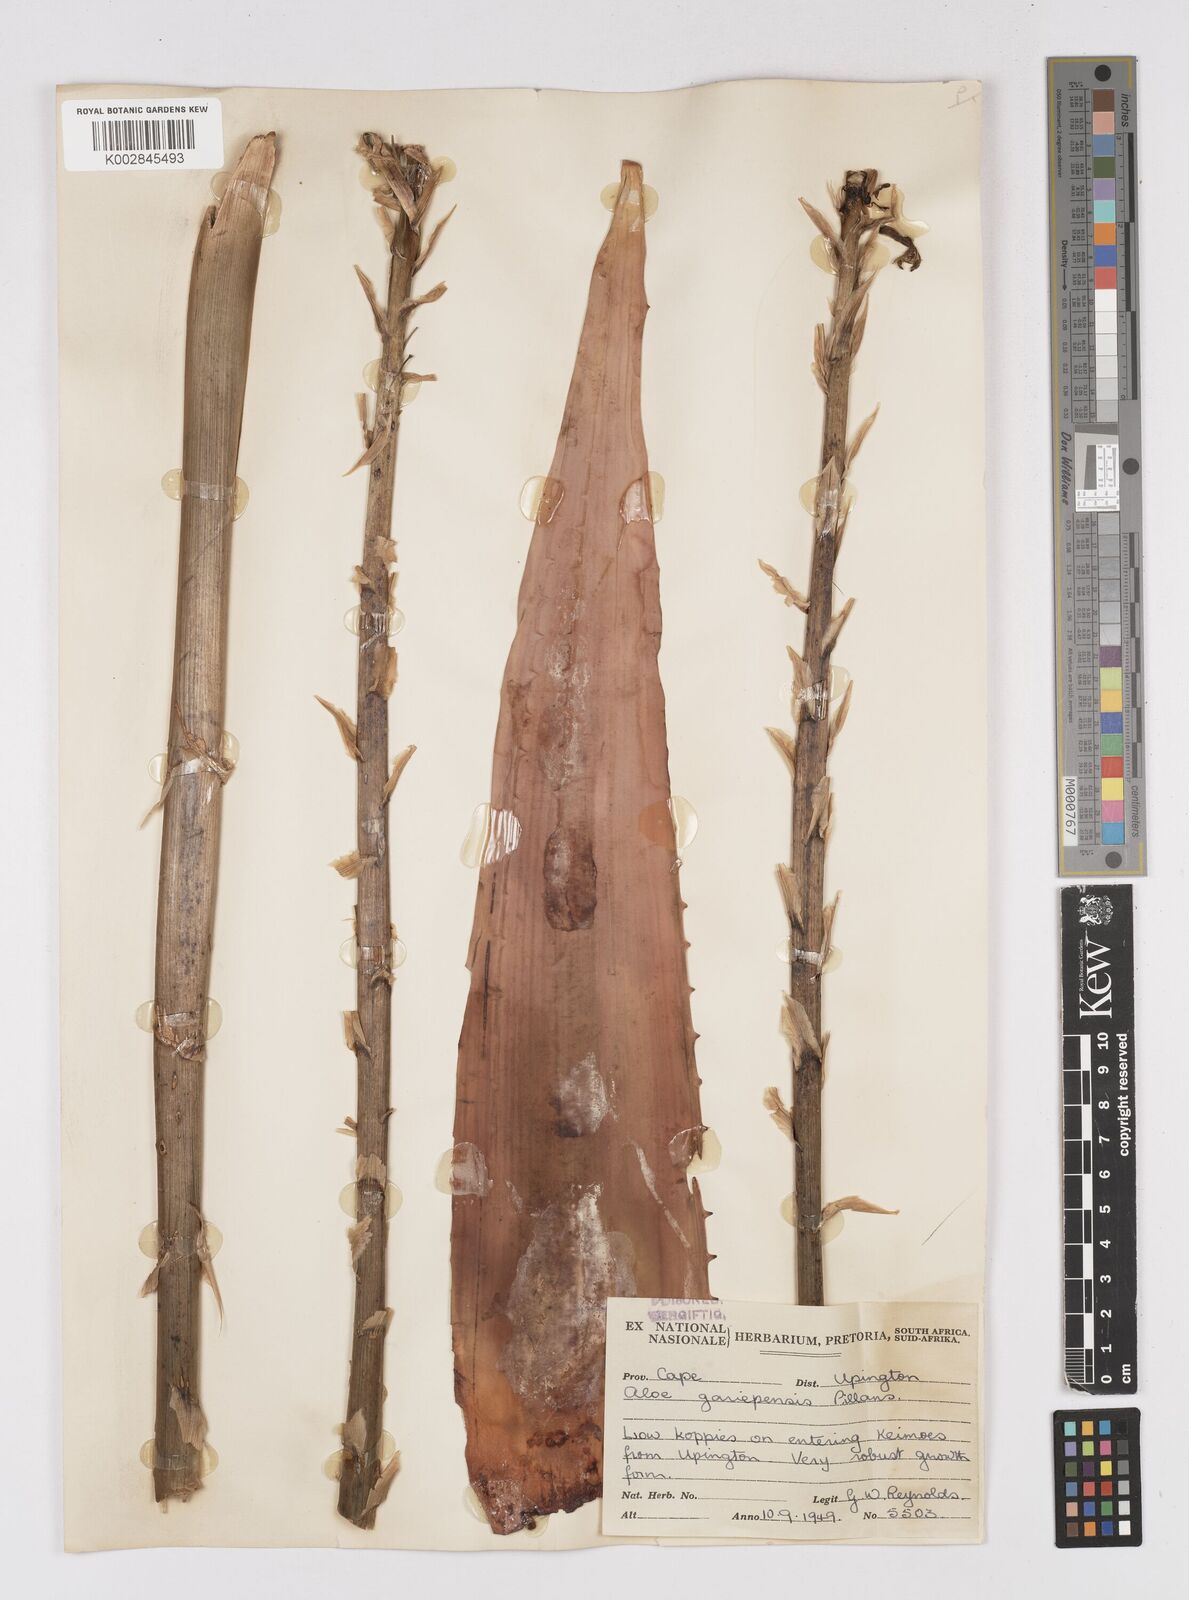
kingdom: Plantae
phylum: Tracheophyta
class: Liliopsida
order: Asparagales
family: Asphodelaceae
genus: Aloe
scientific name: Aloe gariepensis
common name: Orange river aloe
